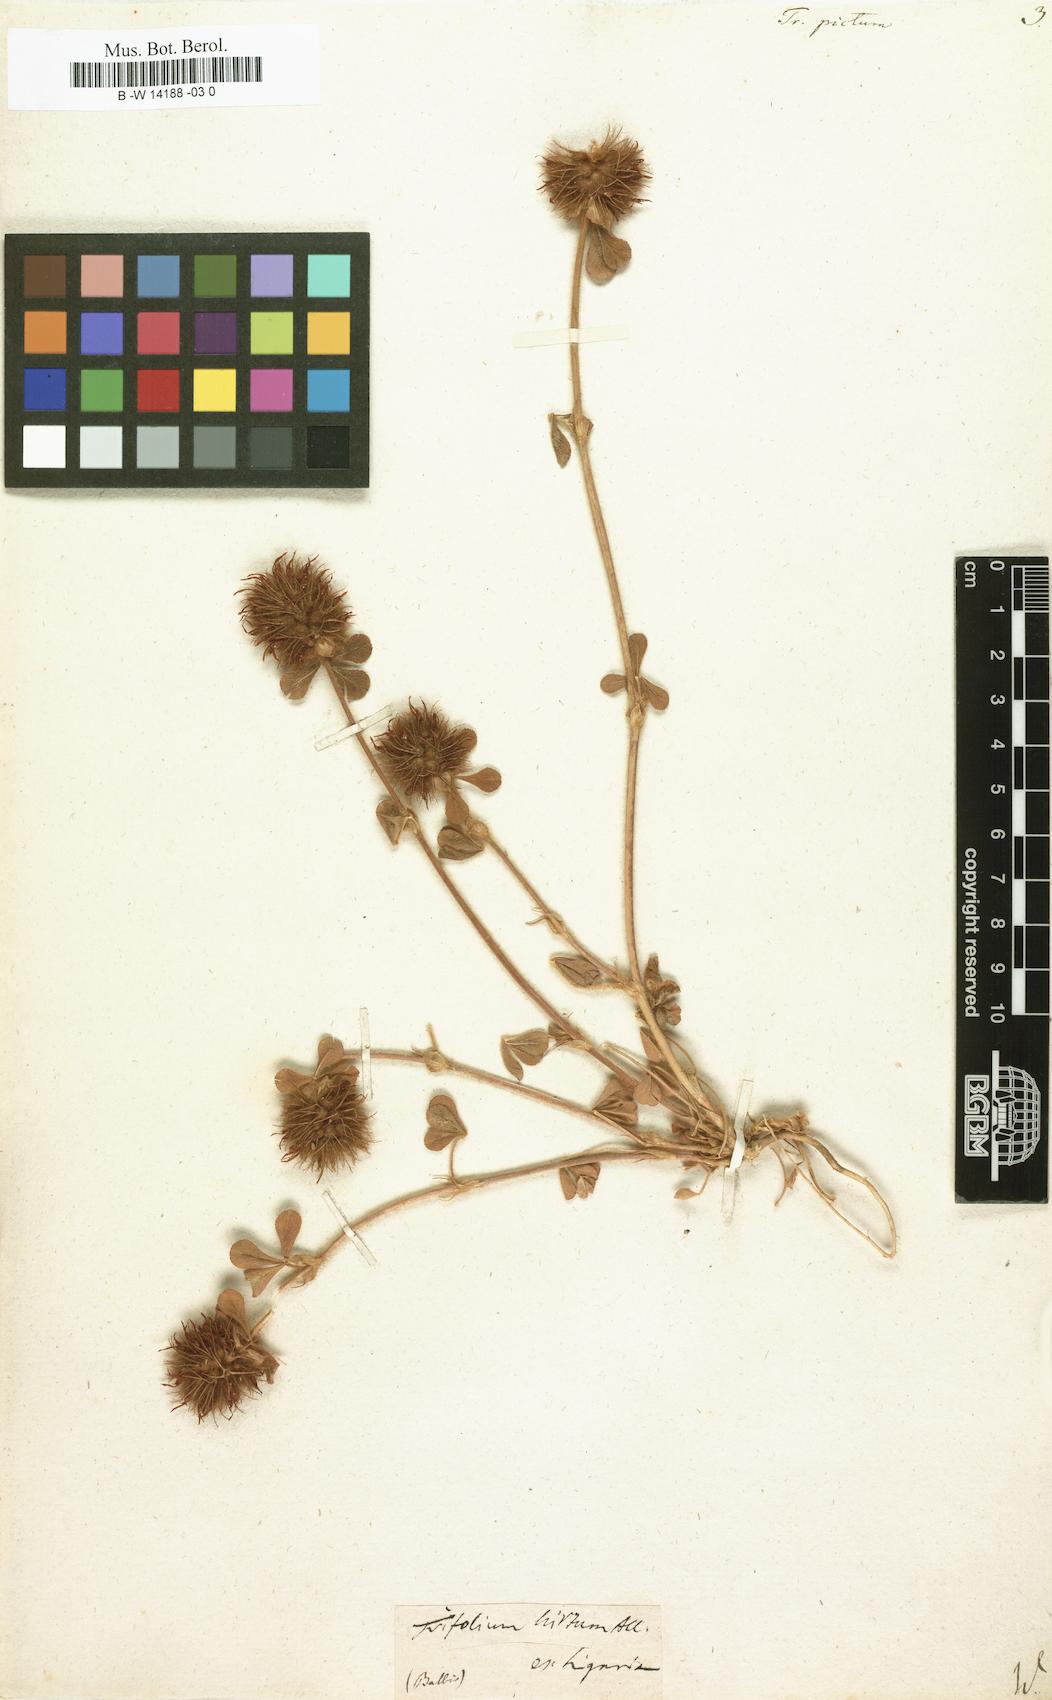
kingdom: Plantae
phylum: Tracheophyta
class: Magnoliopsida
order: Fabales
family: Fabaceae
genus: Trifolium
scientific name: Trifolium hirtum
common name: Rose clover
